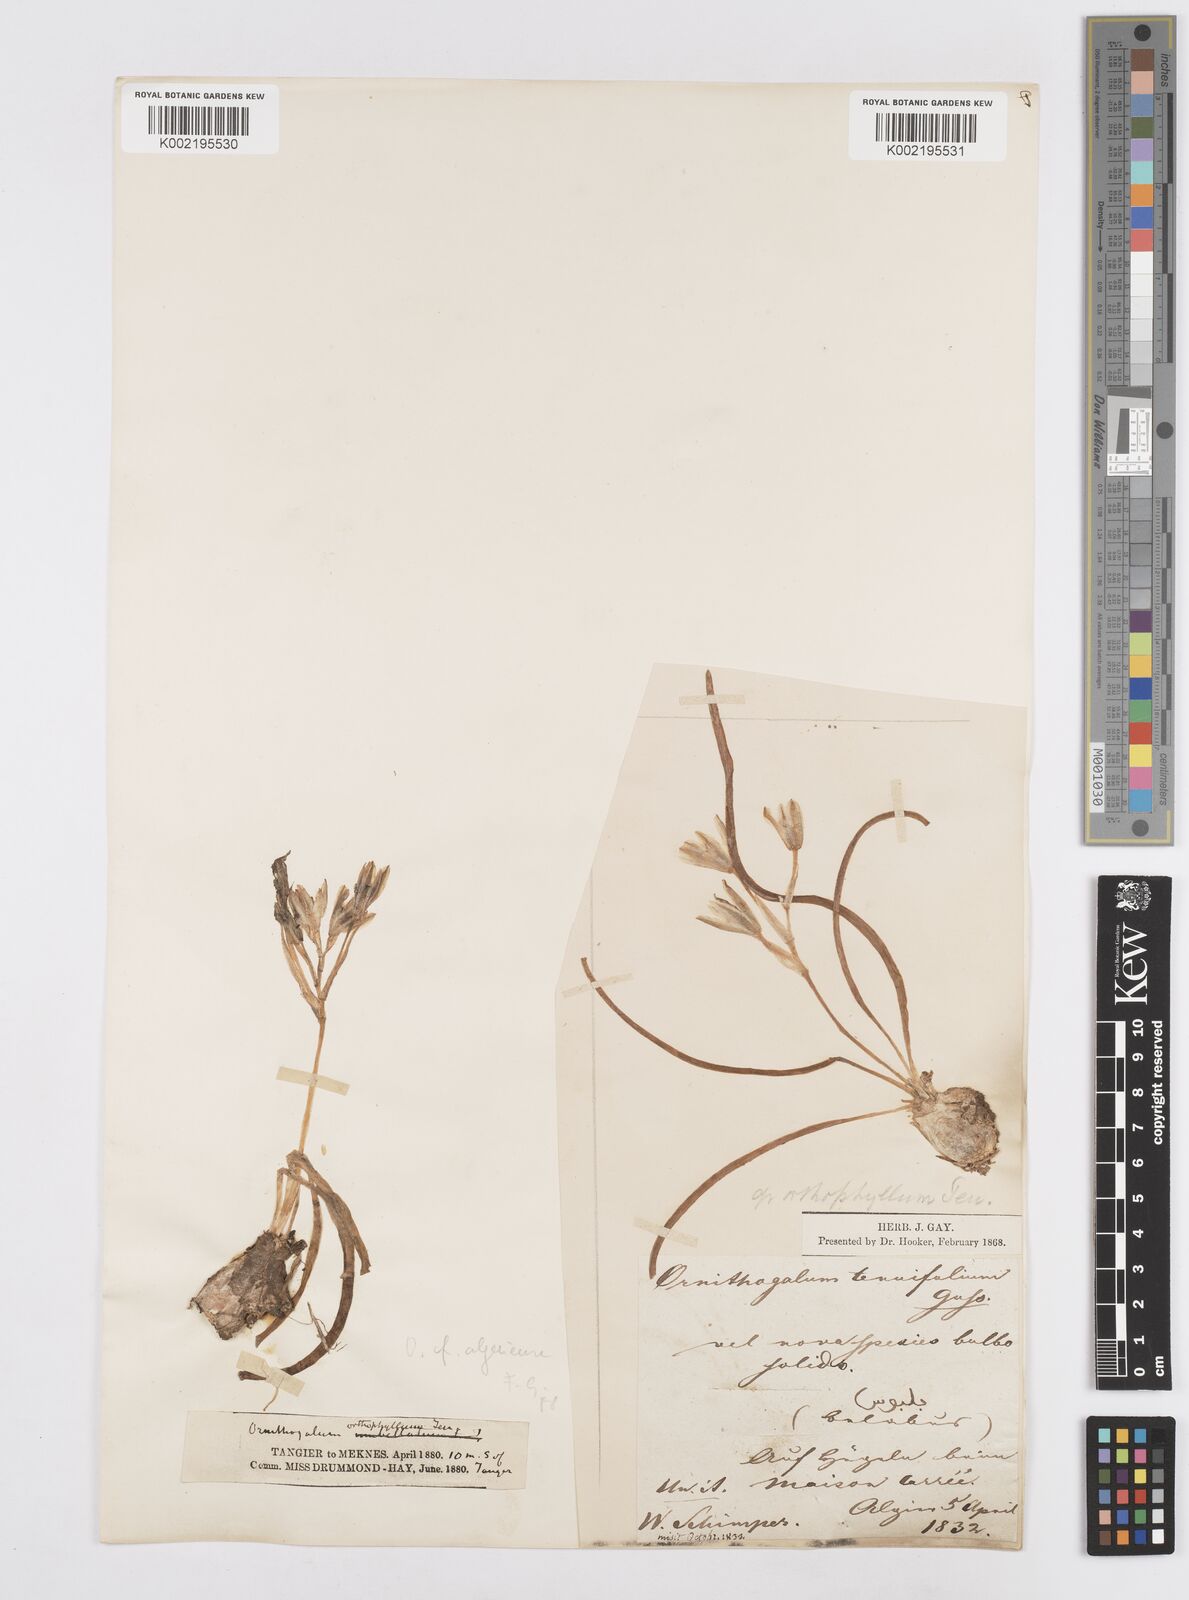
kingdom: Plantae
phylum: Tracheophyta
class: Liliopsida
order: Asparagales
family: Asparagaceae
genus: Ornithogalum
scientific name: Ornithogalum baeticum
